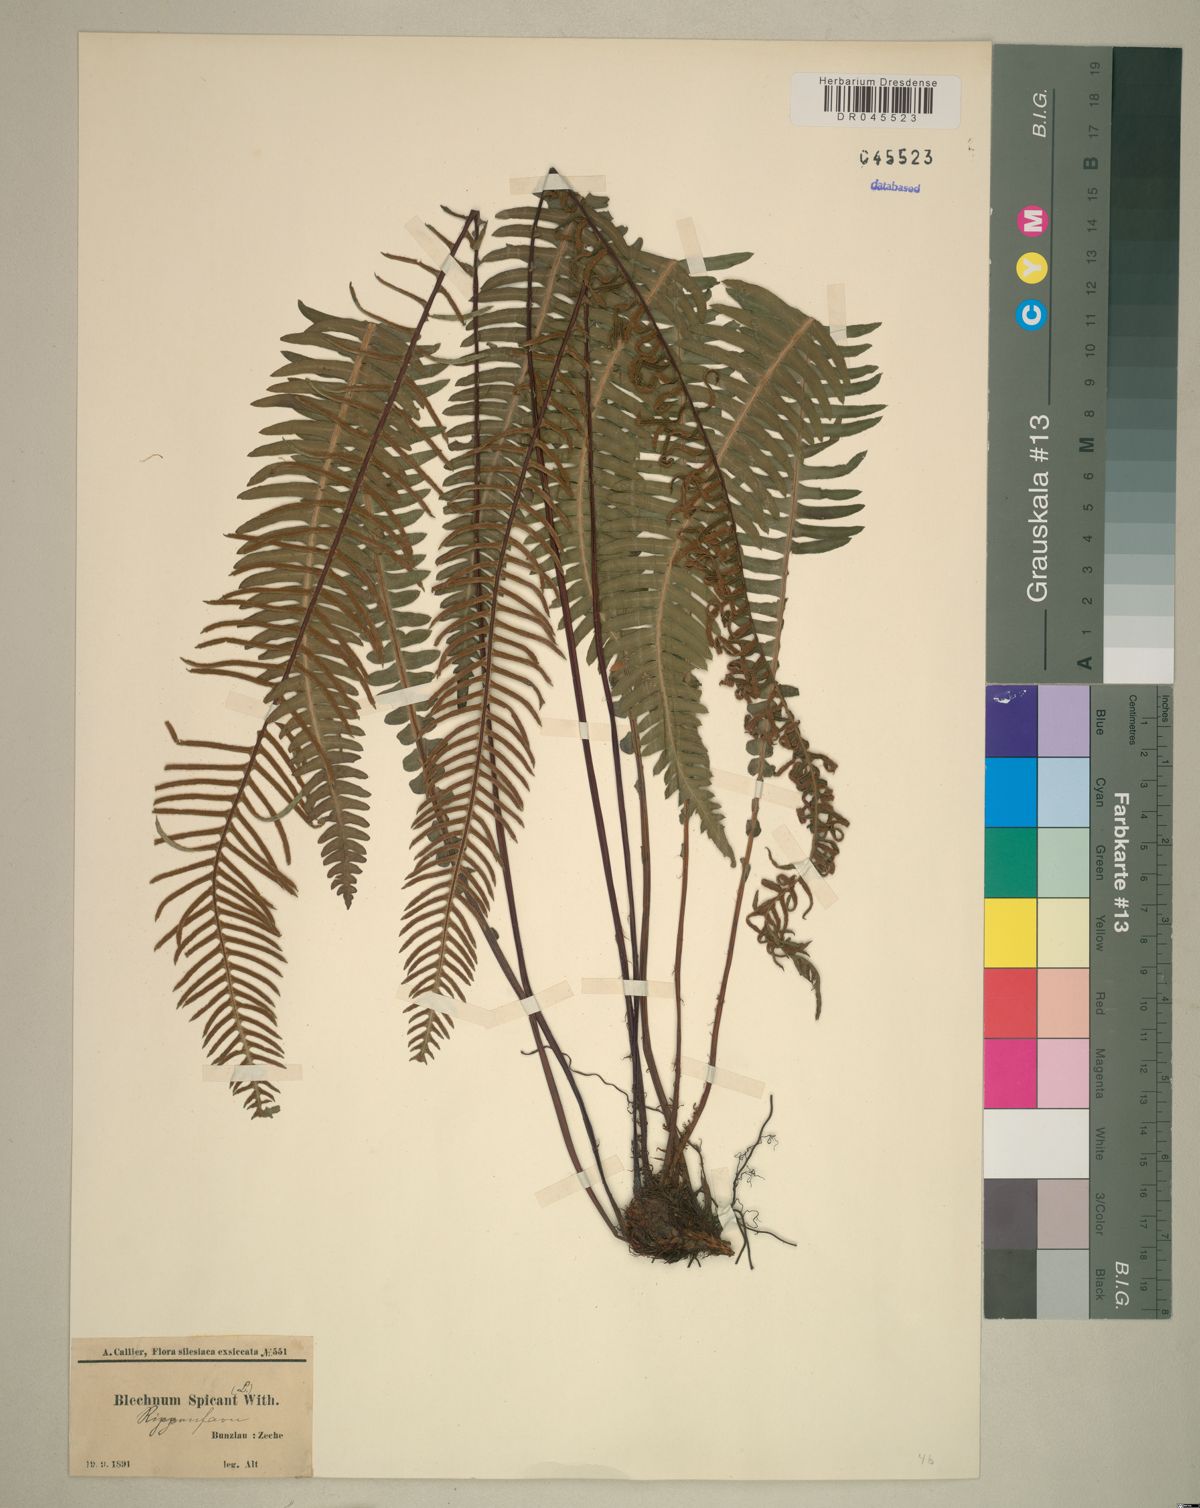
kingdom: Plantae
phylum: Tracheophyta
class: Polypodiopsida
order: Polypodiales
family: Blechnaceae
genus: Struthiopteris
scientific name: Struthiopteris spicant
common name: Deer fern
